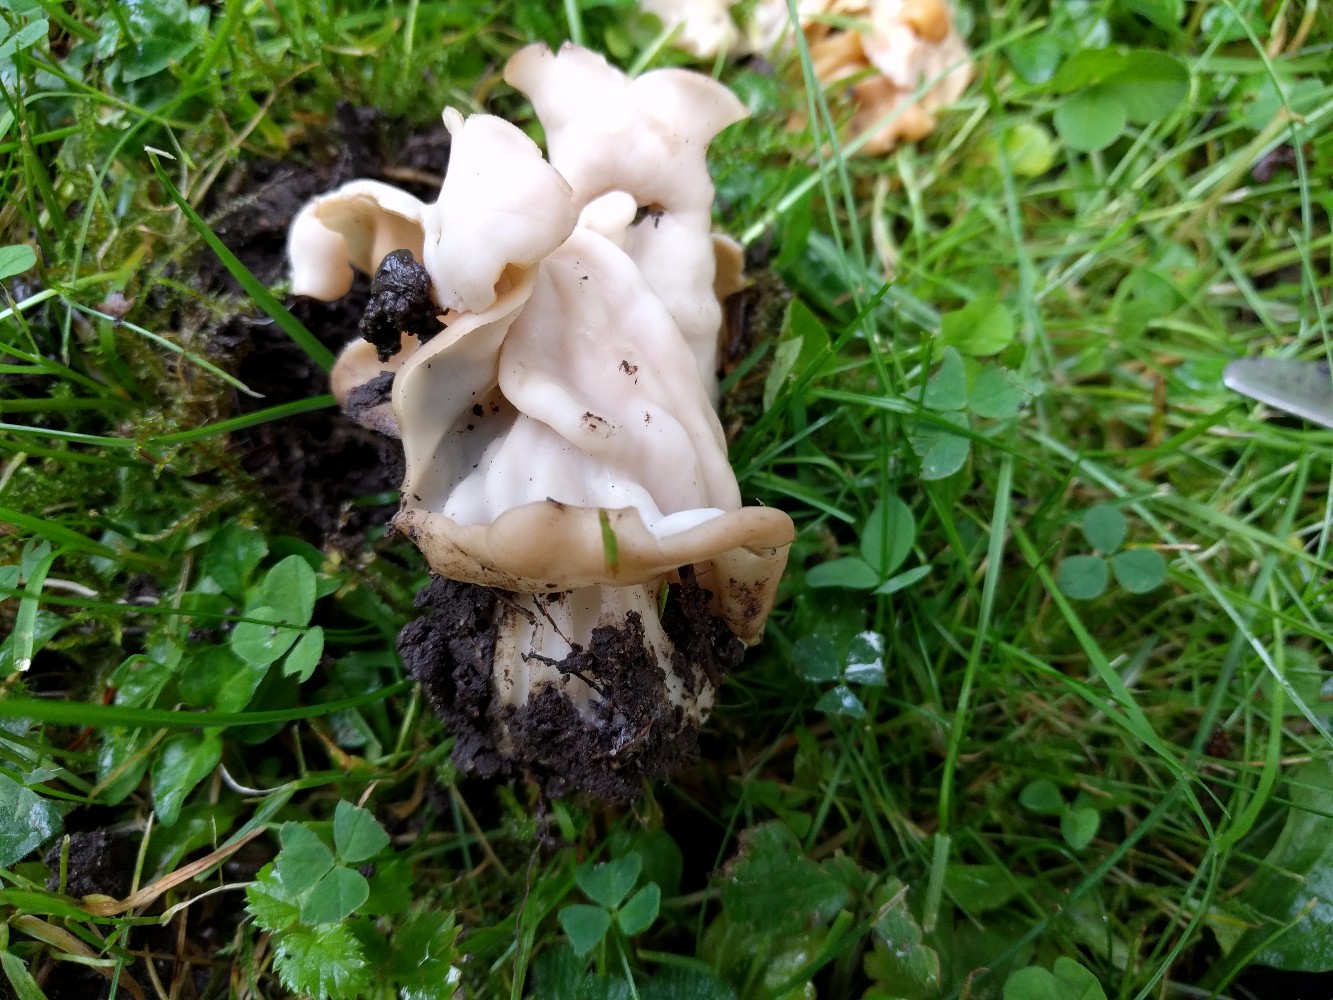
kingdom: Fungi
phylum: Ascomycota
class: Pezizomycetes
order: Pezizales
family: Helvellaceae
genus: Helvella
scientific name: Helvella crispa
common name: kruset foldhat
